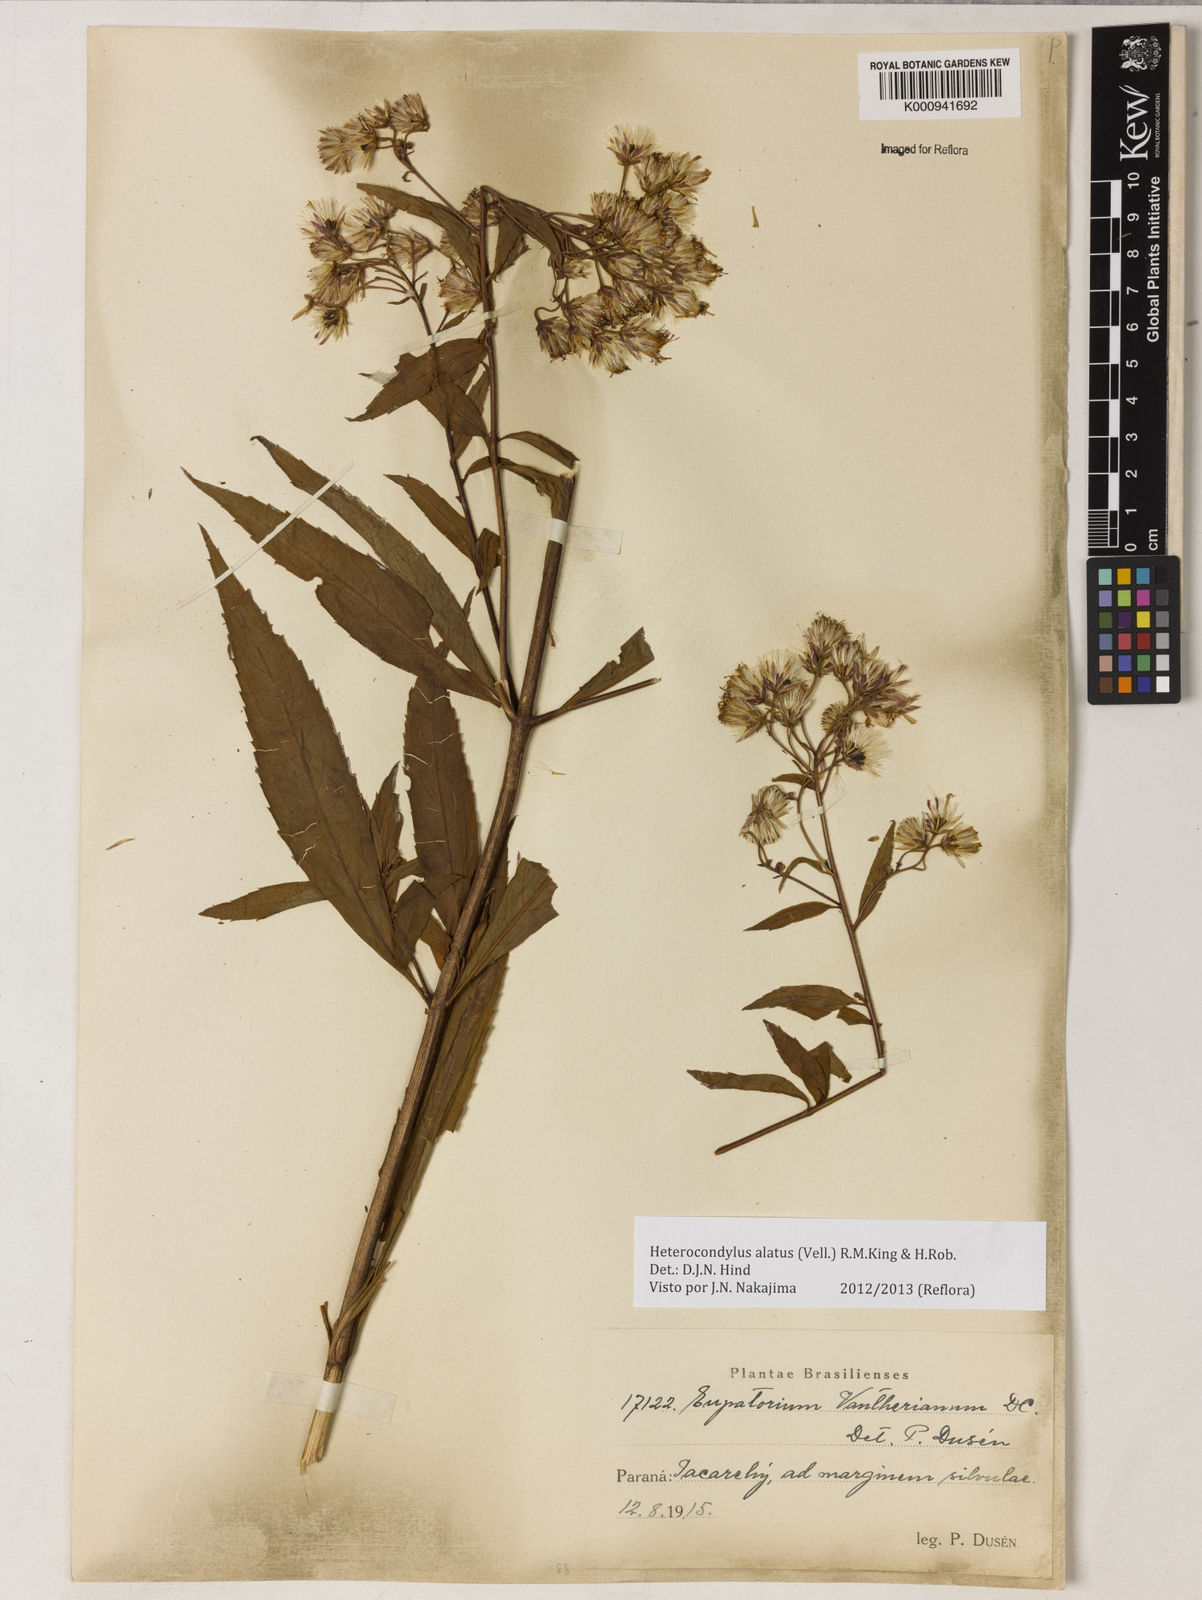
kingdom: Plantae
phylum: Tracheophyta
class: Magnoliopsida
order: Asterales
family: Asteraceae
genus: Heterocondylus
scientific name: Heterocondylus alatus
